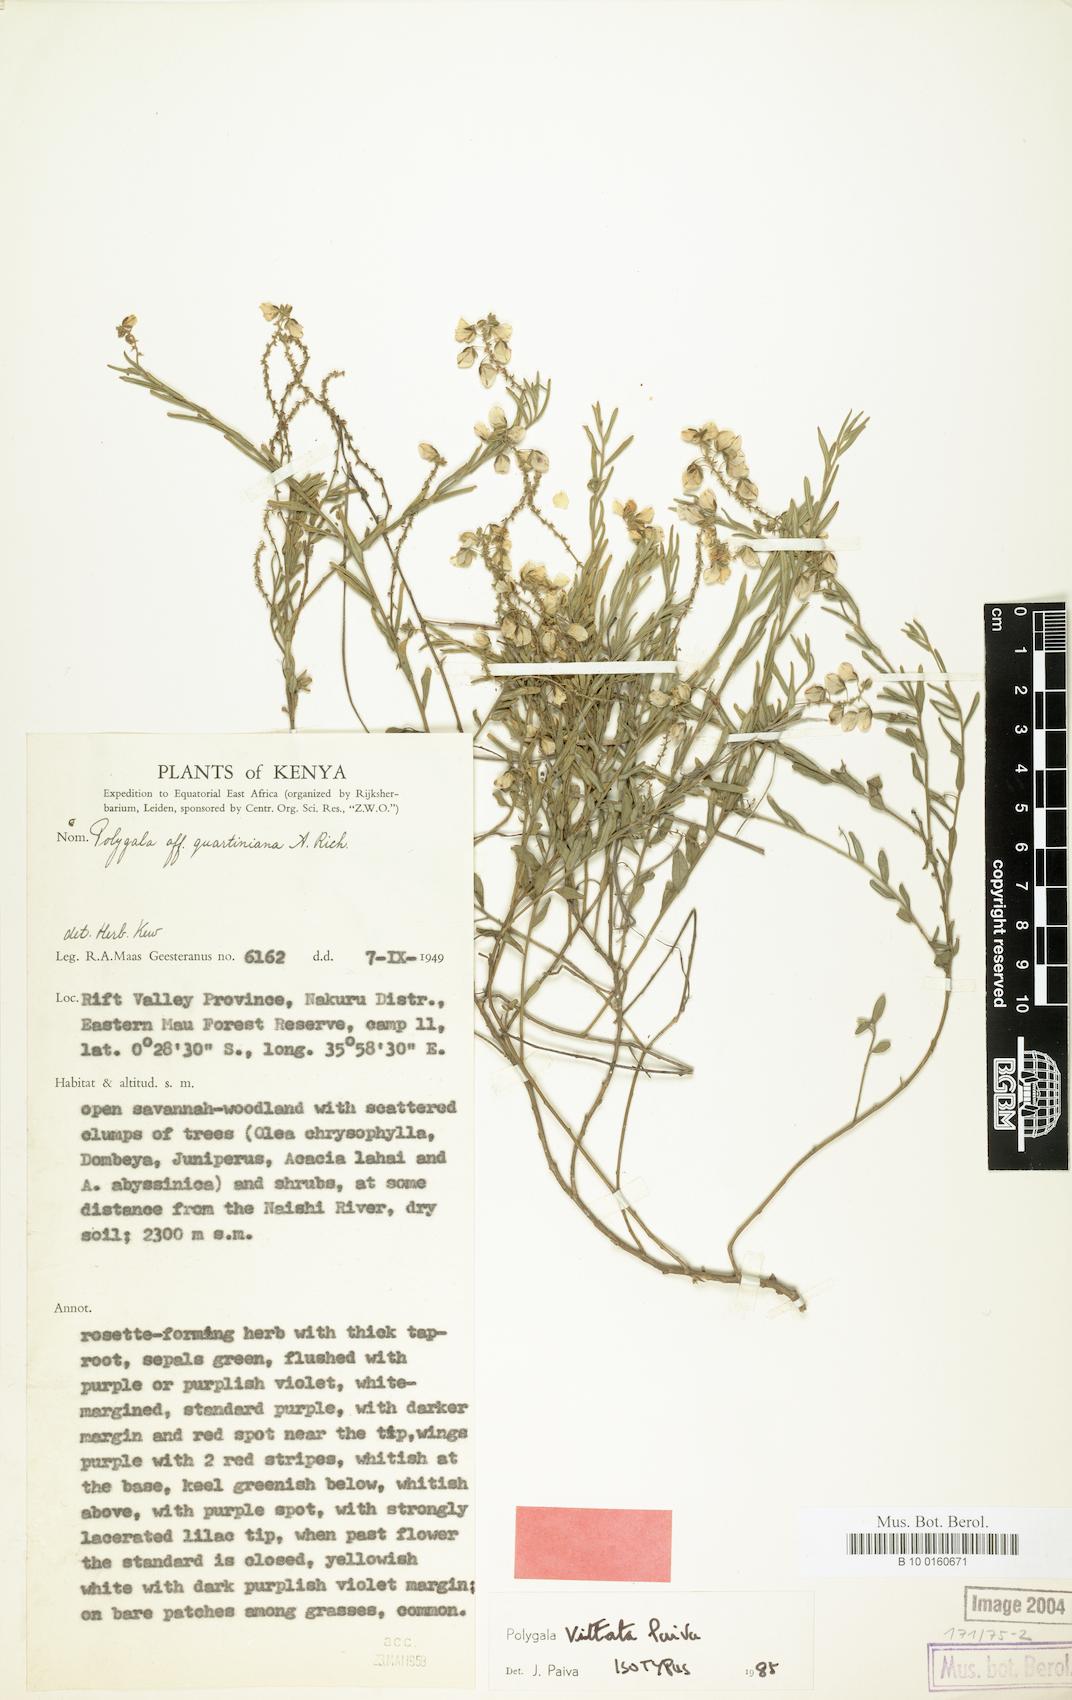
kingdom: Plantae
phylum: Tracheophyta
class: Magnoliopsida
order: Fabales
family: Polygalaceae
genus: Polygala
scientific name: Polygala vittata
